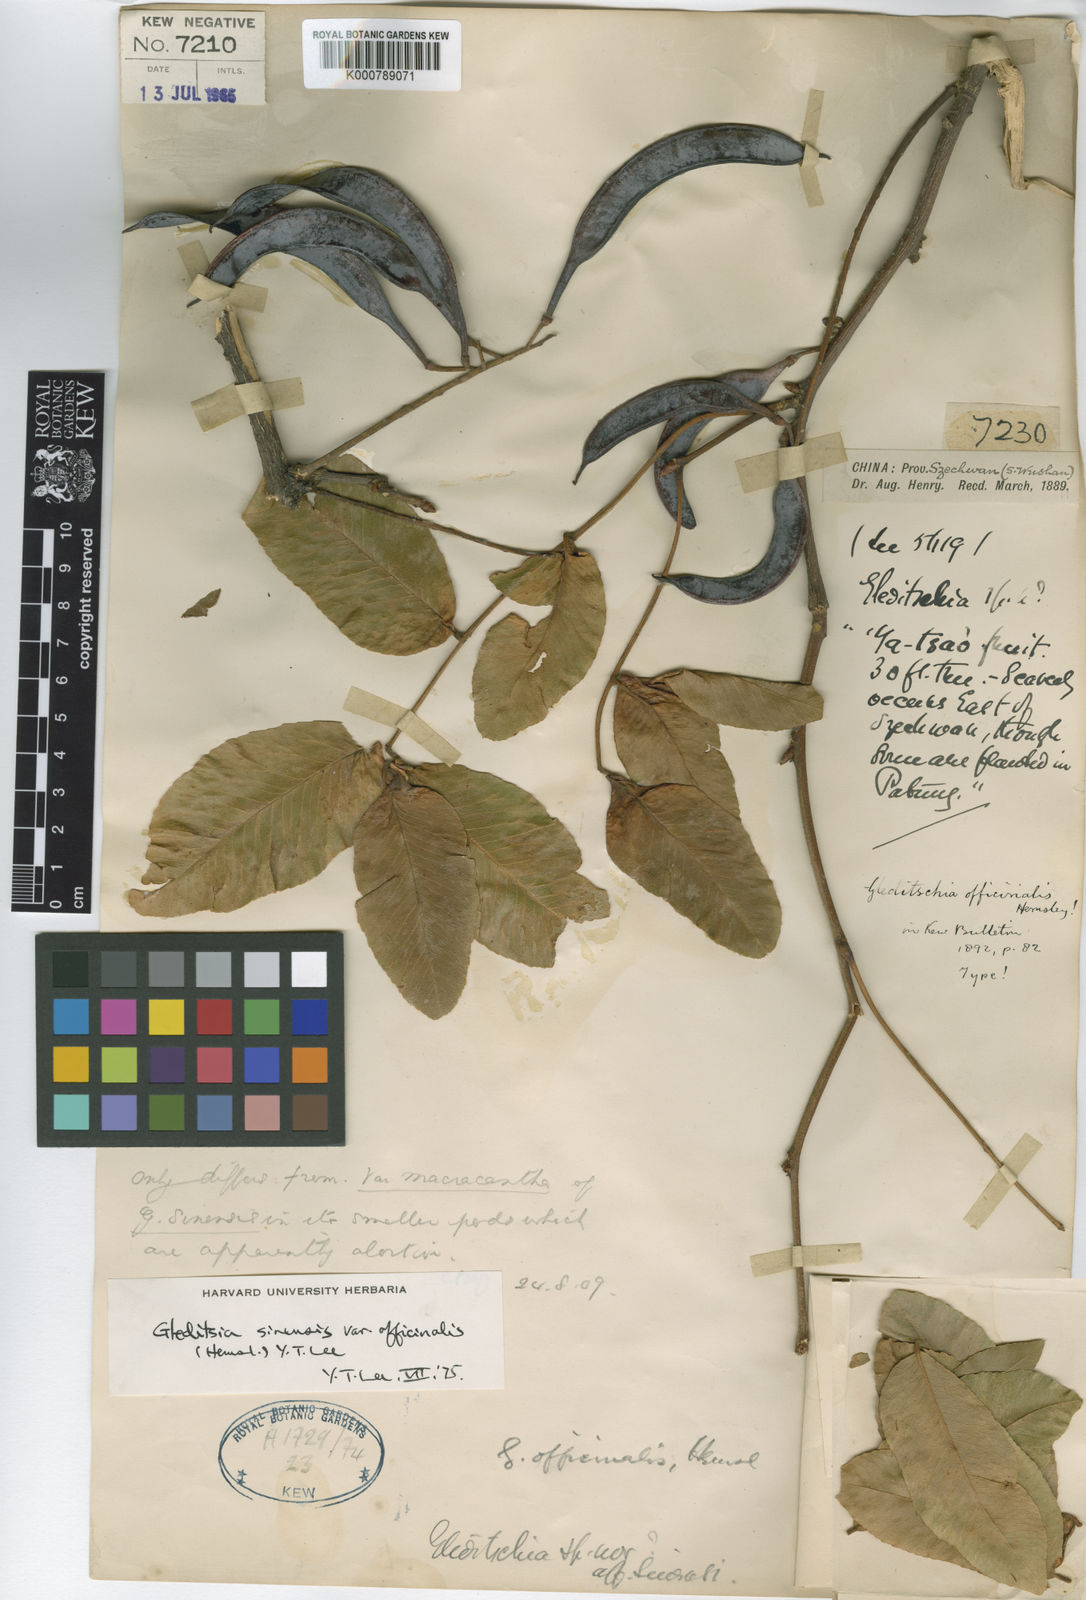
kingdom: Plantae
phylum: Tracheophyta
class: Magnoliopsida
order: Fabales
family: Fabaceae
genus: Gleditsia
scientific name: Gleditsia sinensis
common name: Chinese honey-locust
